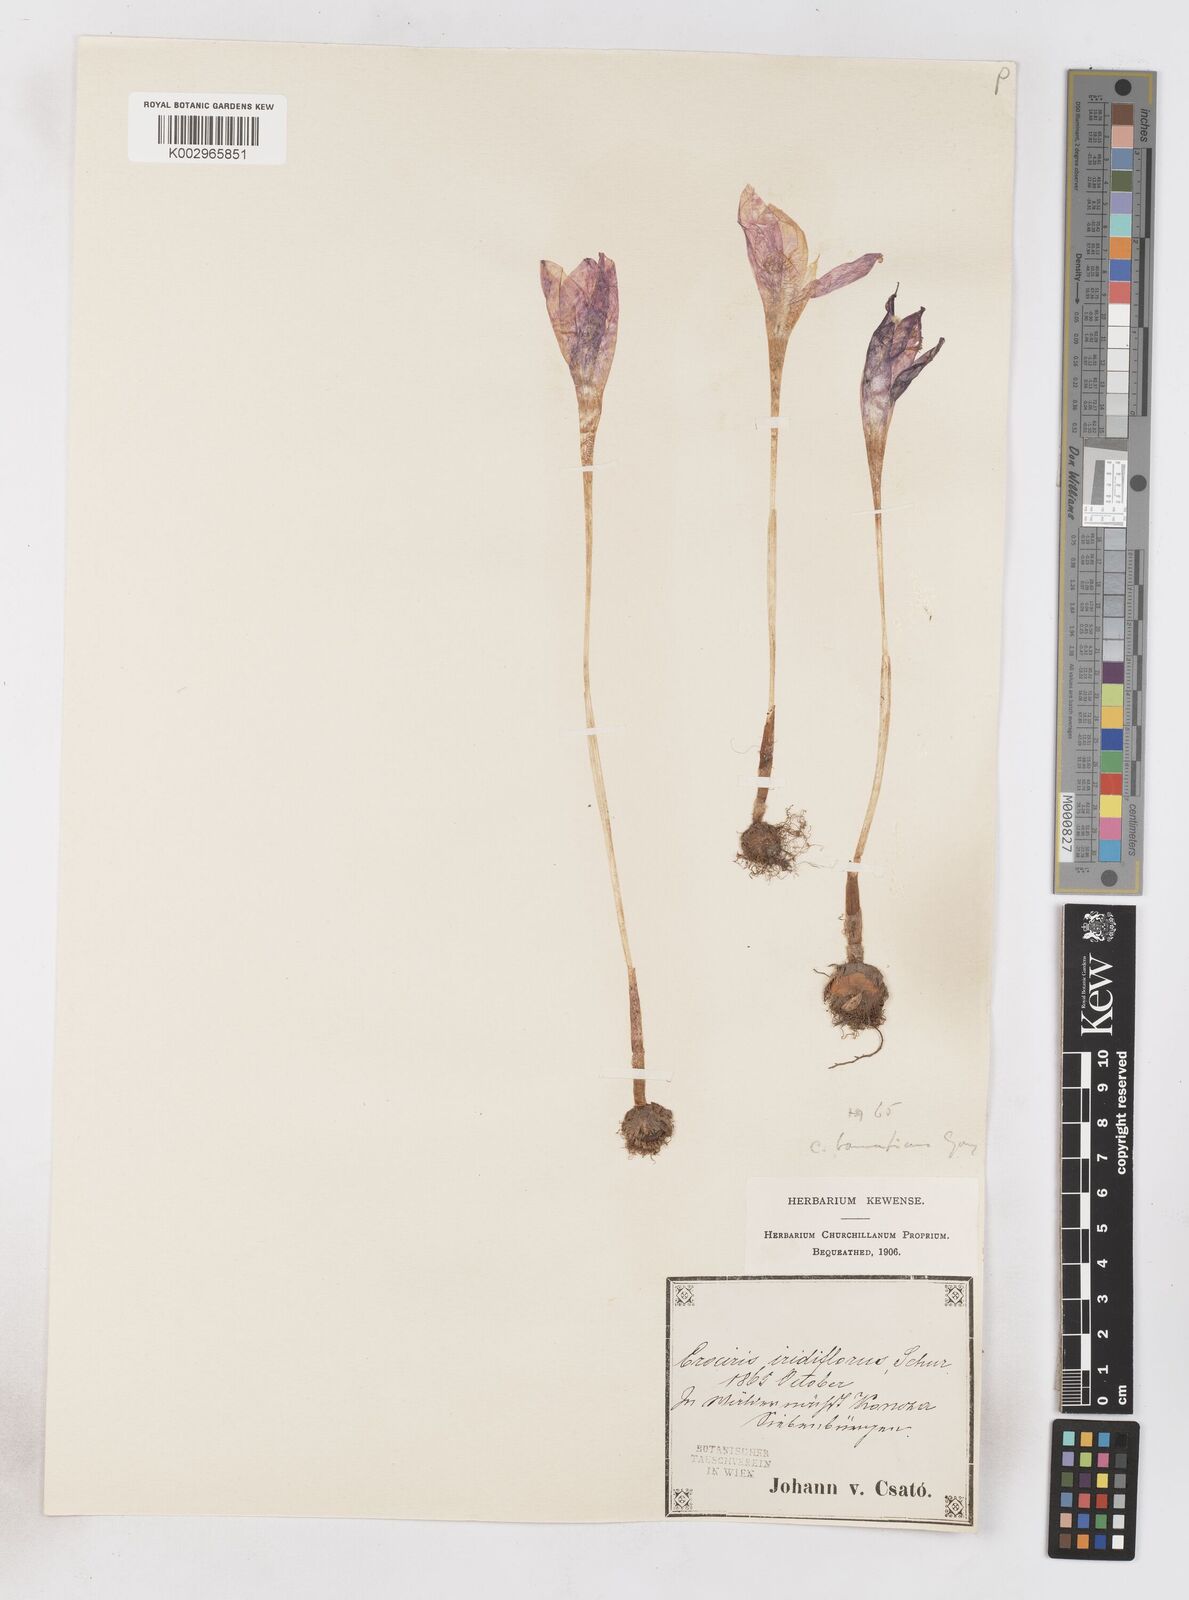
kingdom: Plantae
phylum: Tracheophyta
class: Liliopsida
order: Asparagales
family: Iridaceae
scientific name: Iridaceae
